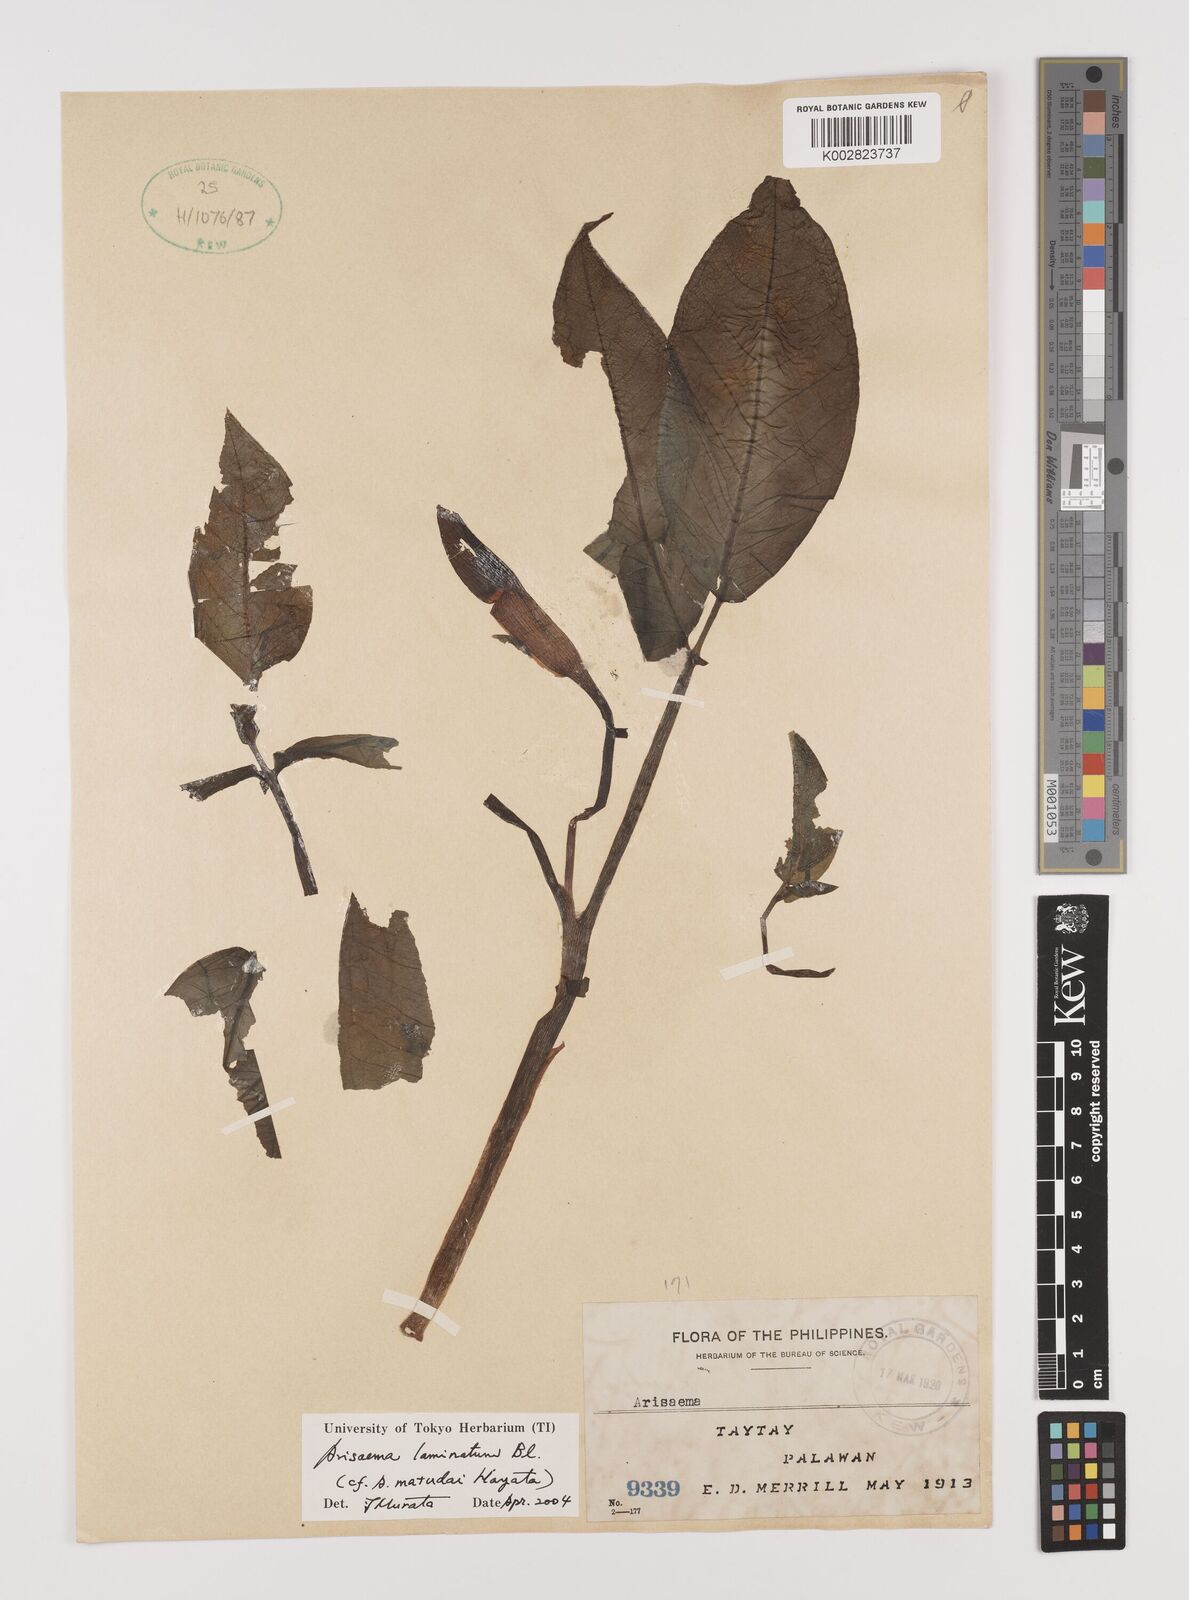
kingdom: Plantae
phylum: Tracheophyta
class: Liliopsida
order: Alismatales
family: Araceae
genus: Arisaema
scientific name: Arisaema laminatum
